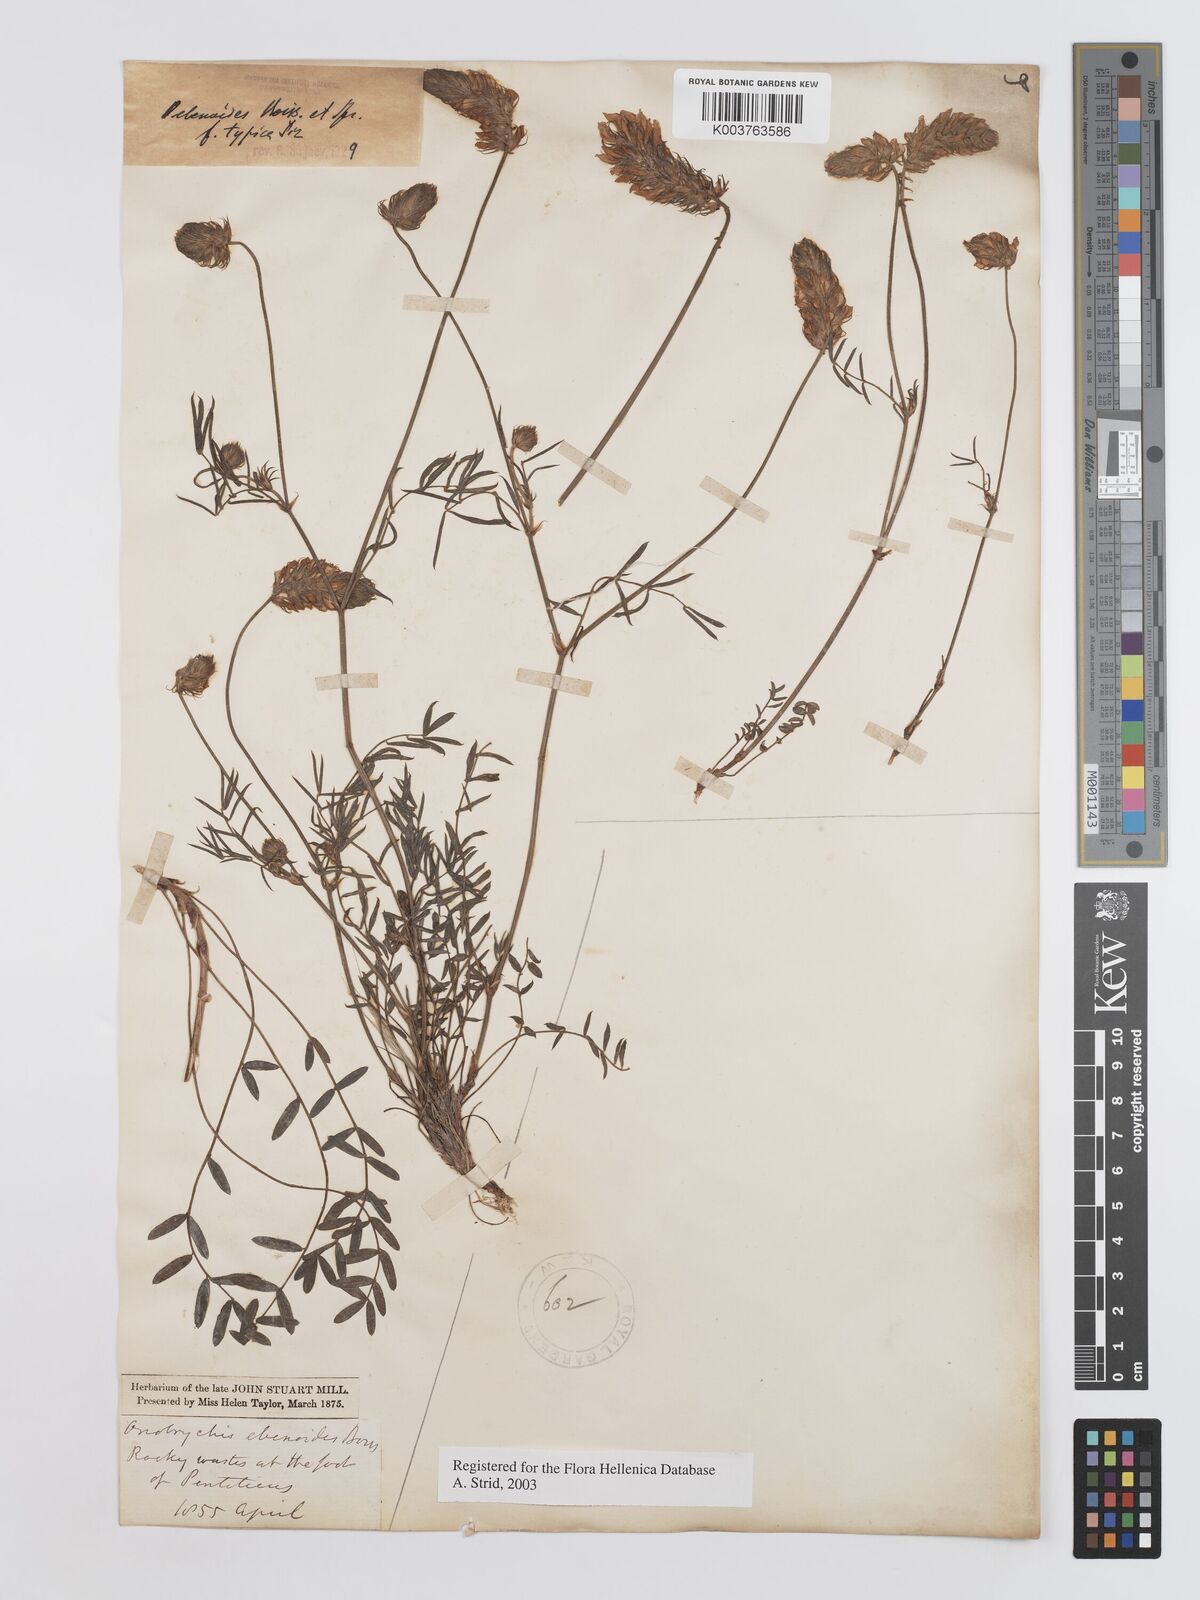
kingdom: Plantae
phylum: Tracheophyta
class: Magnoliopsida
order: Fabales
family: Fabaceae
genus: Onobrychis
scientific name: Onobrychis ebenoides
